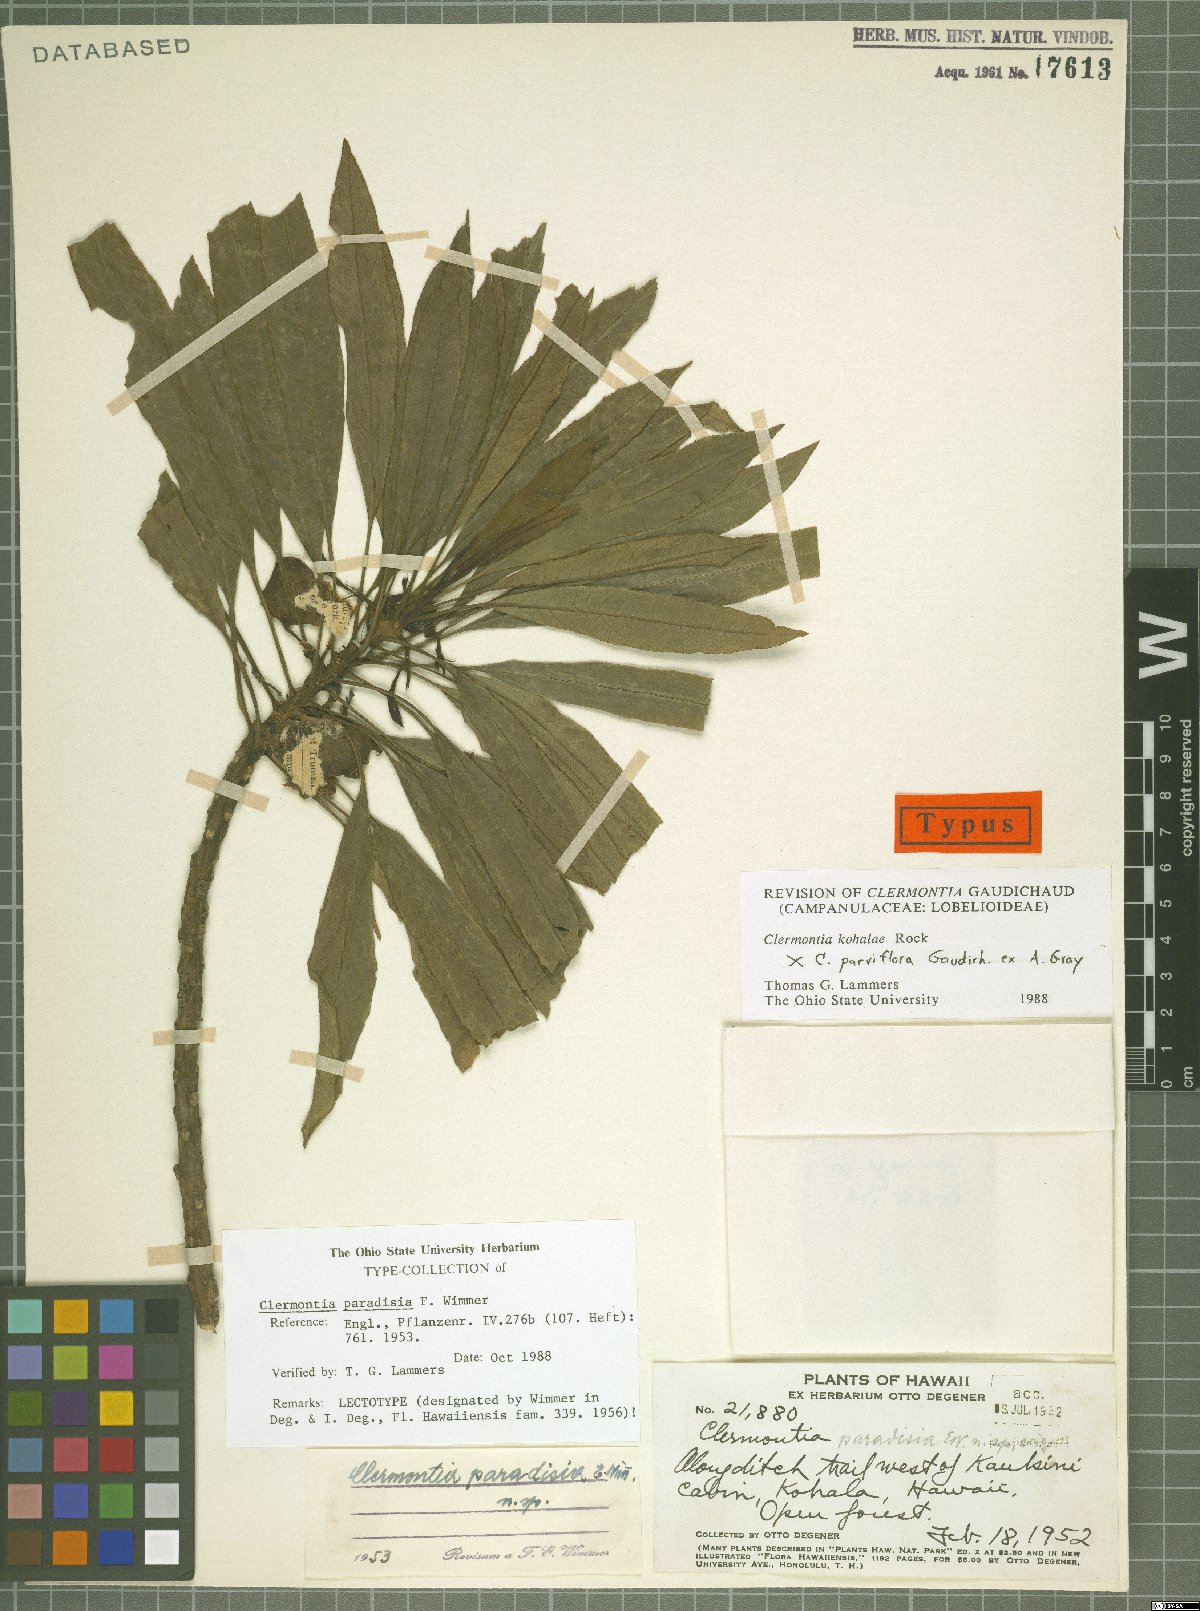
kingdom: Plantae
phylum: Tracheophyta
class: Magnoliopsida
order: Asterales
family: Campanulaceae
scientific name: Campanulaceae
